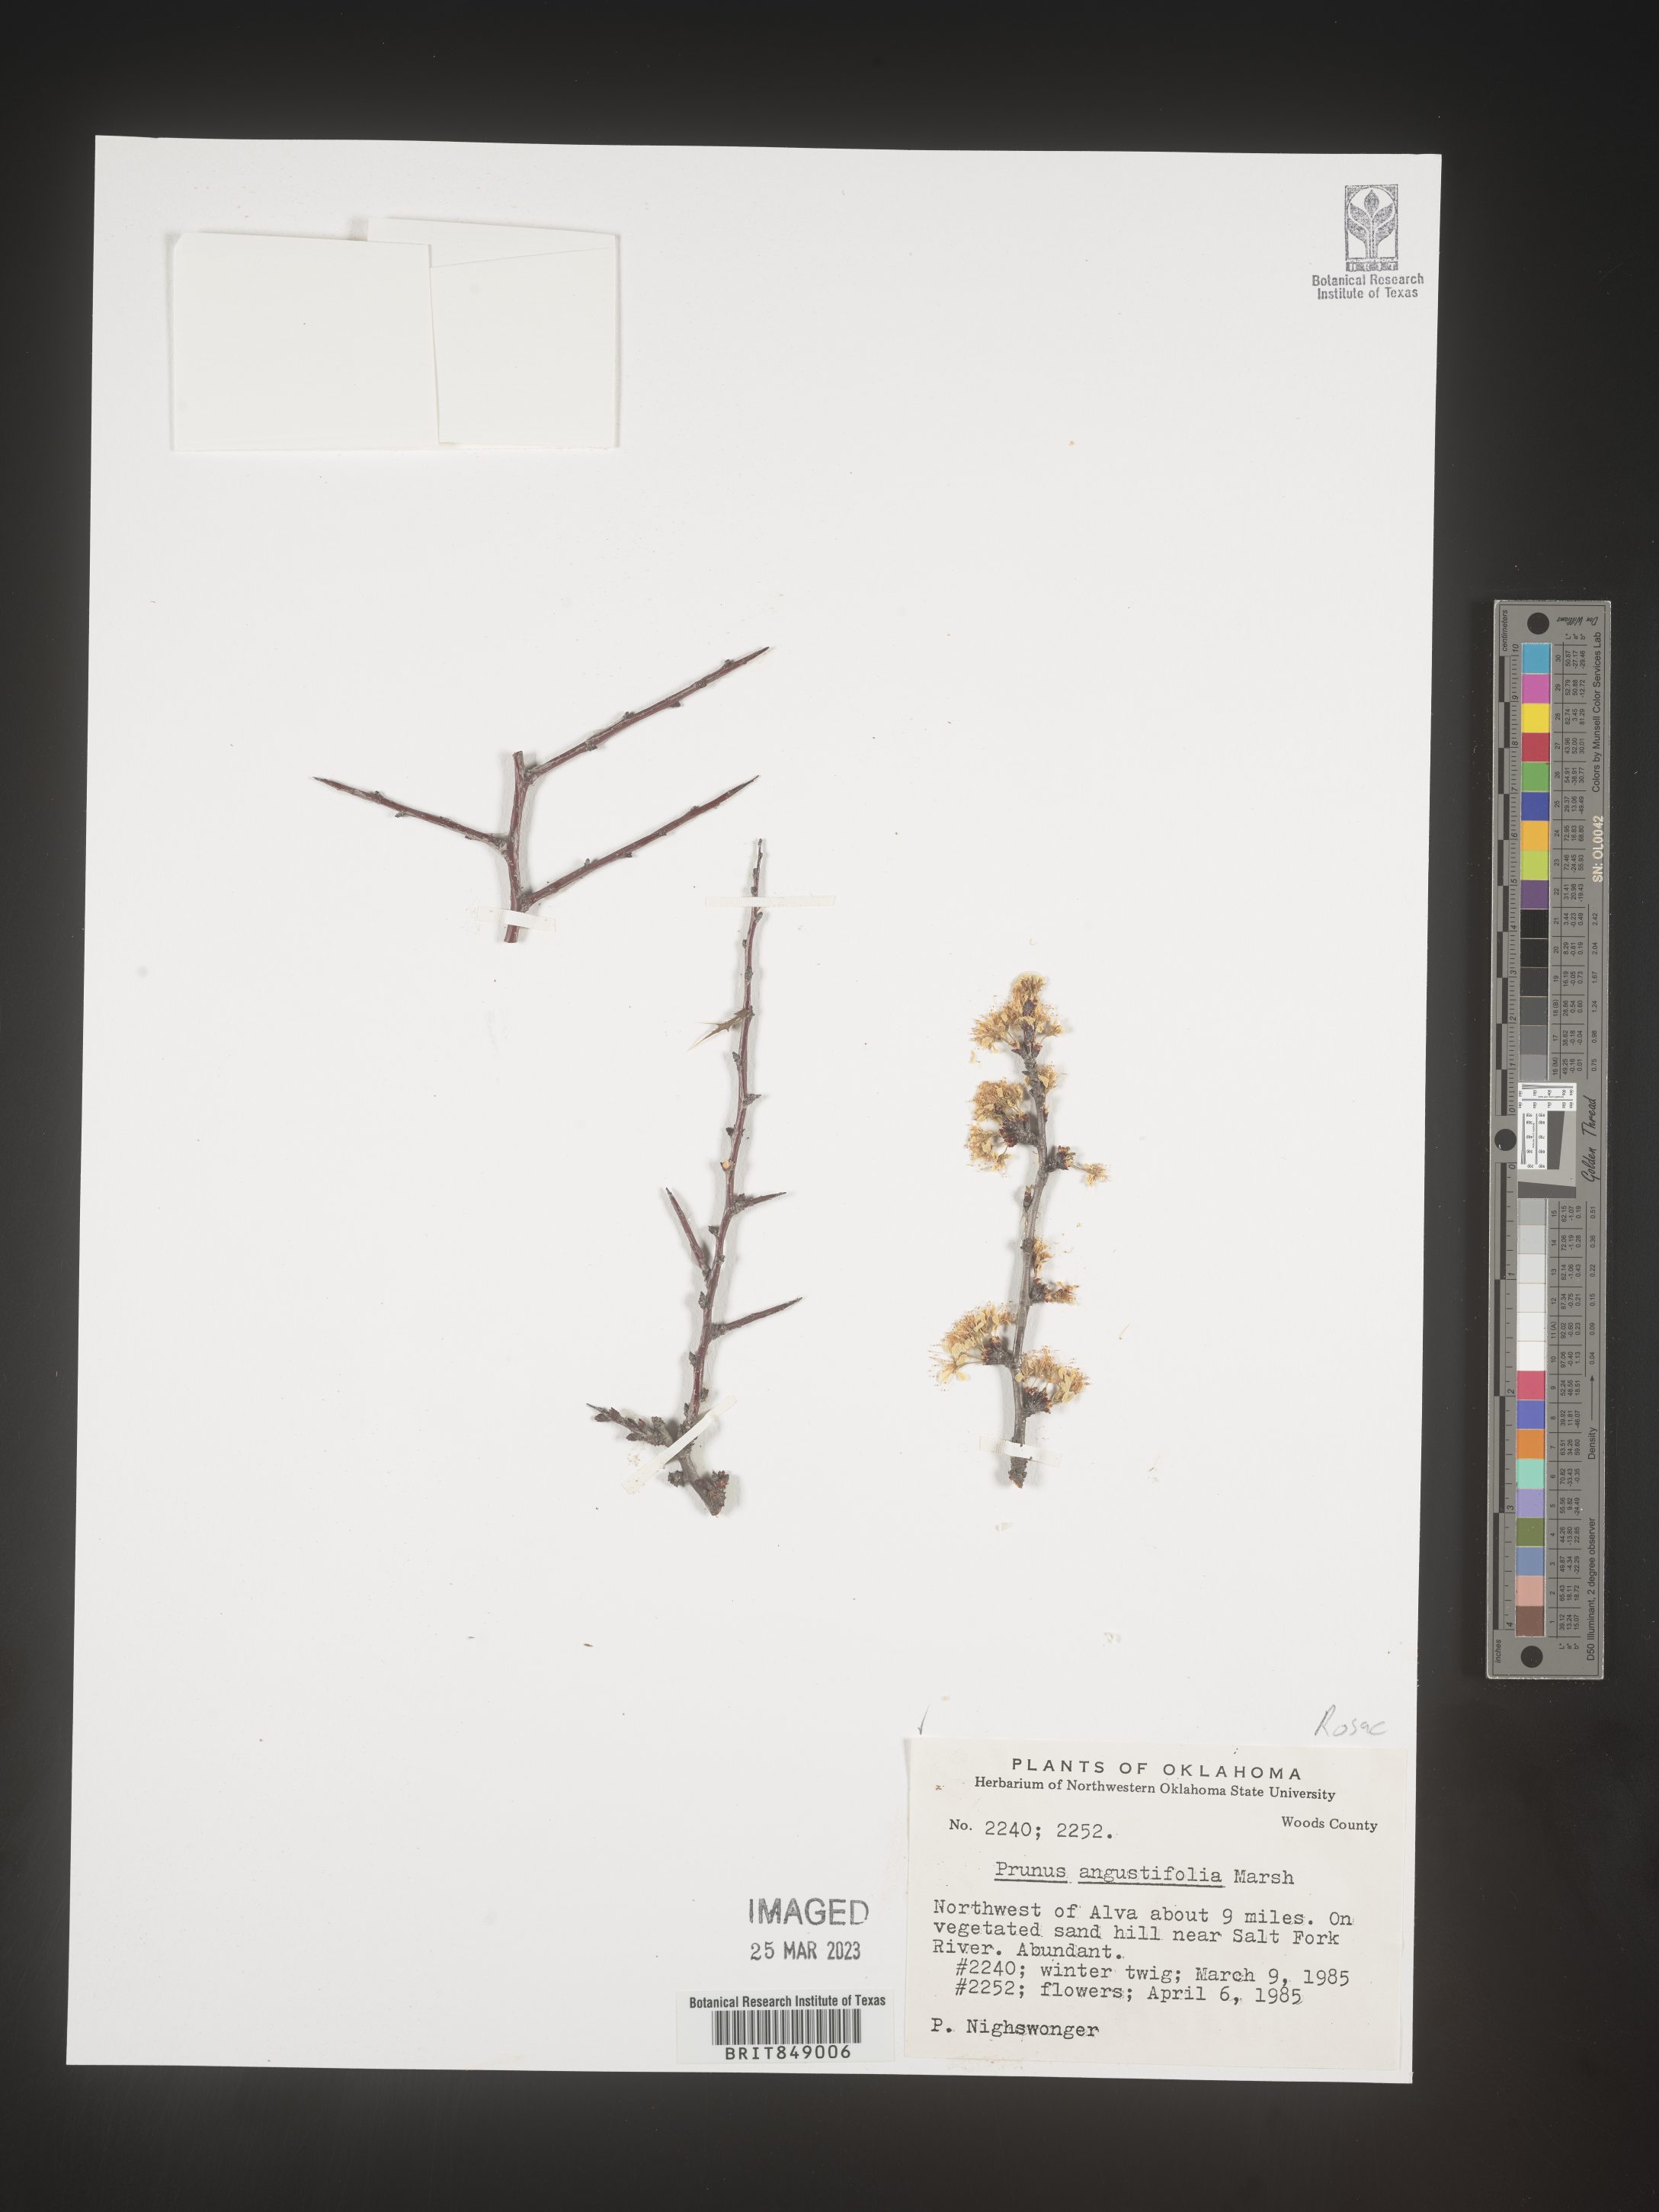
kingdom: Plantae
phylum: Tracheophyta
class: Magnoliopsida
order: Rosales
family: Rosaceae
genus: Prunus
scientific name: Prunus angustifolia
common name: Cherokee plum
